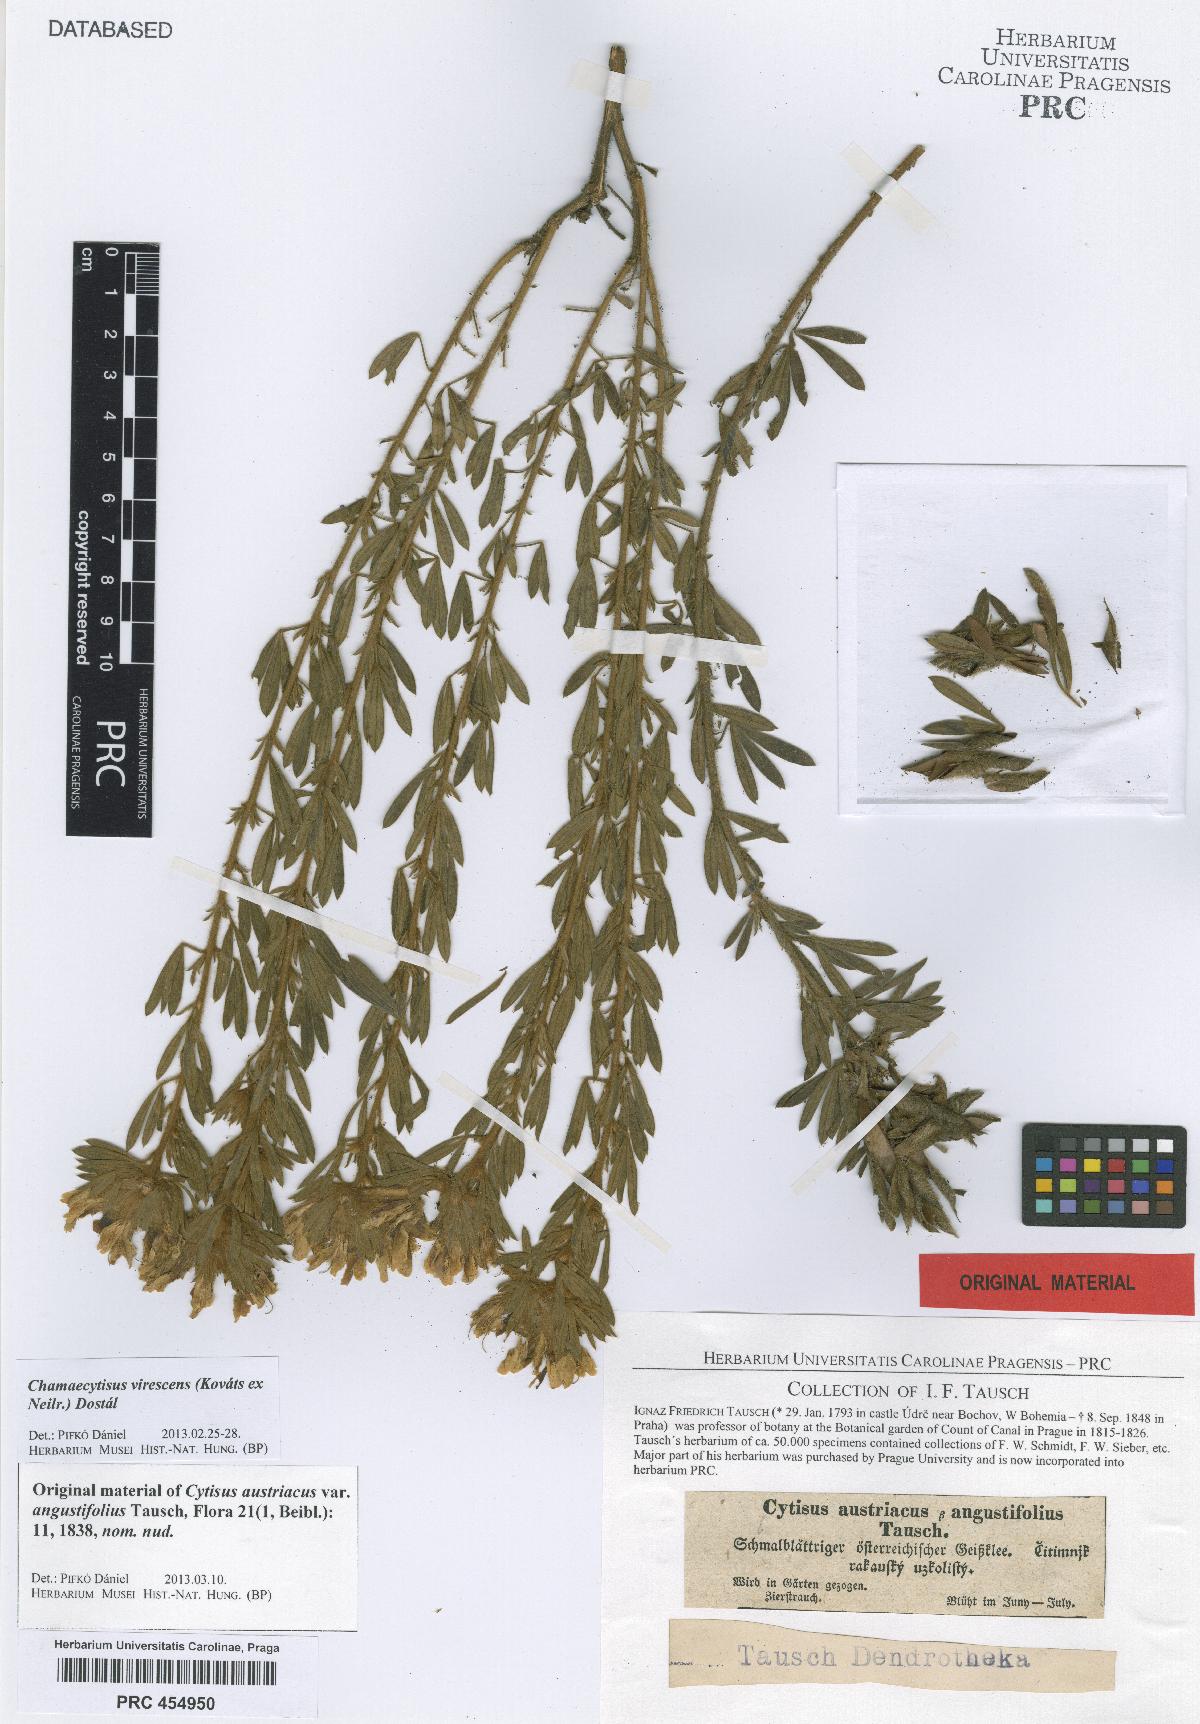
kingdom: Plantae
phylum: Tracheophyta
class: Magnoliopsida
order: Fabales
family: Fabaceae
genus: Chamaecytisus
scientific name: Chamaecytisus austriacus
